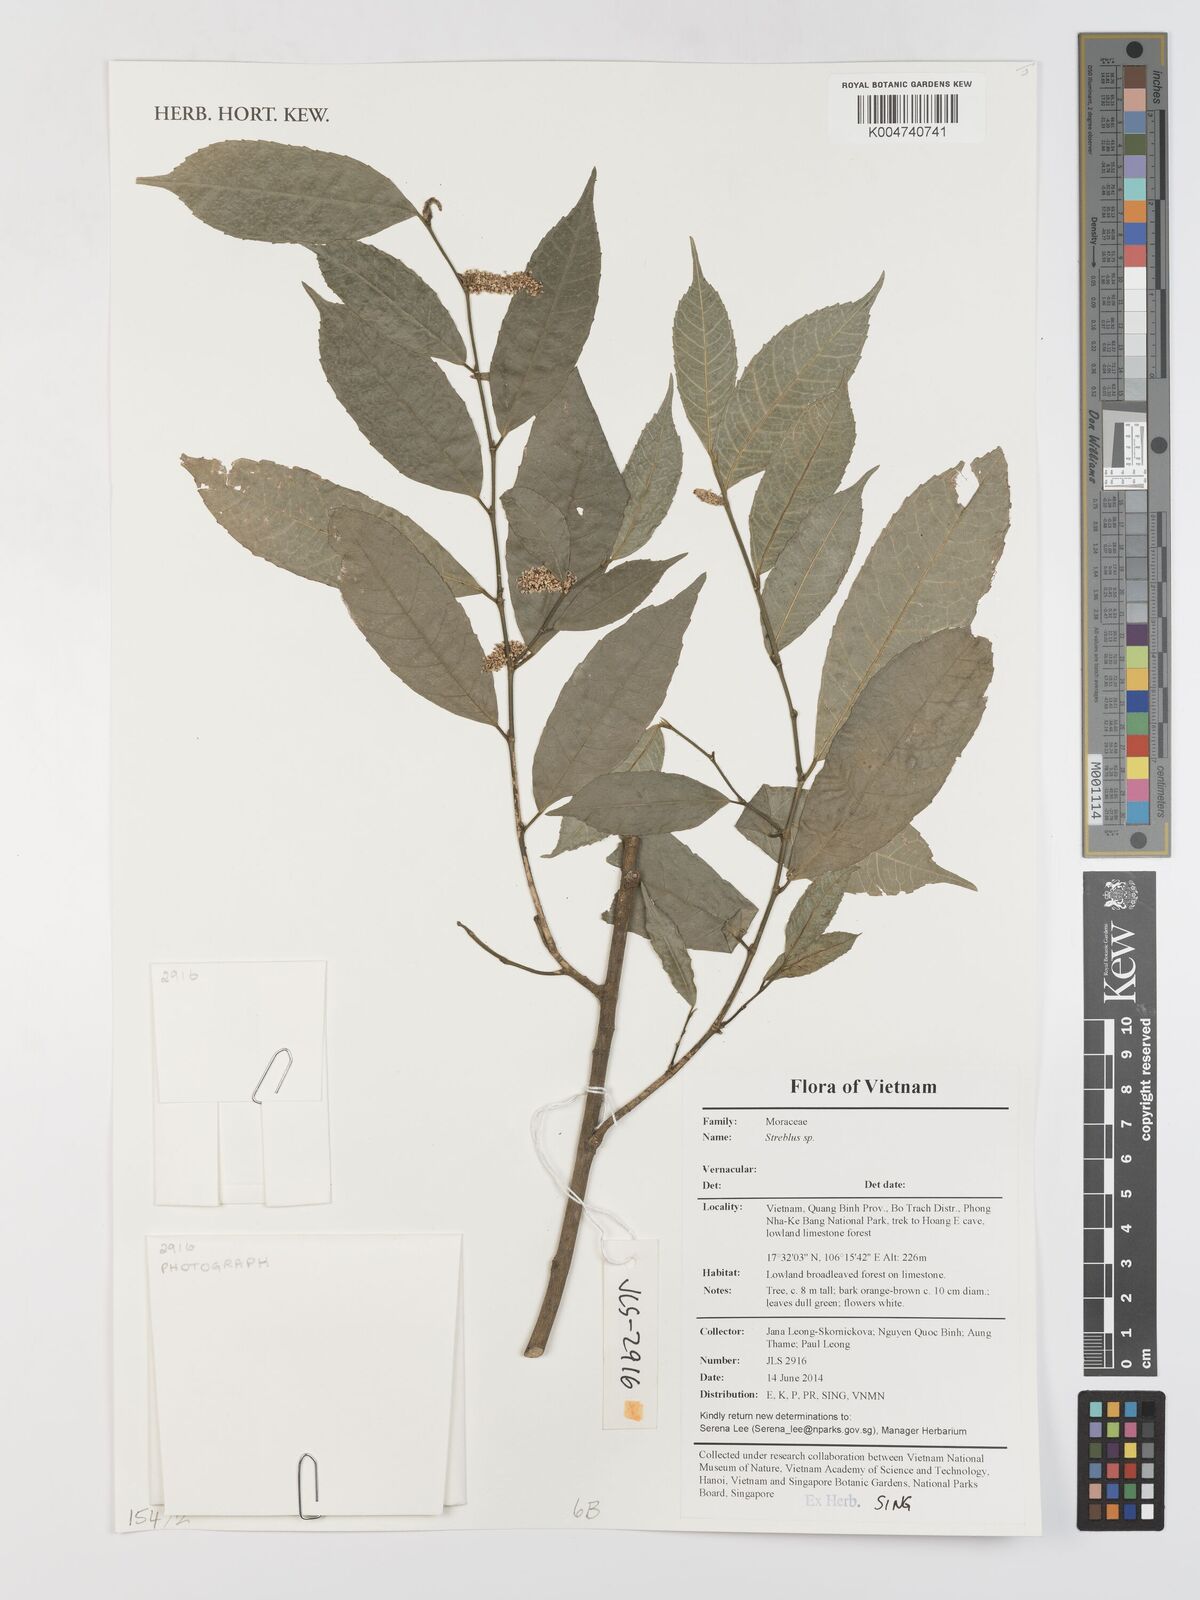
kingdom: Plantae
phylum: Tracheophyta
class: Magnoliopsida
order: Rosales
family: Moraceae
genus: Streblus
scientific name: Streblus
